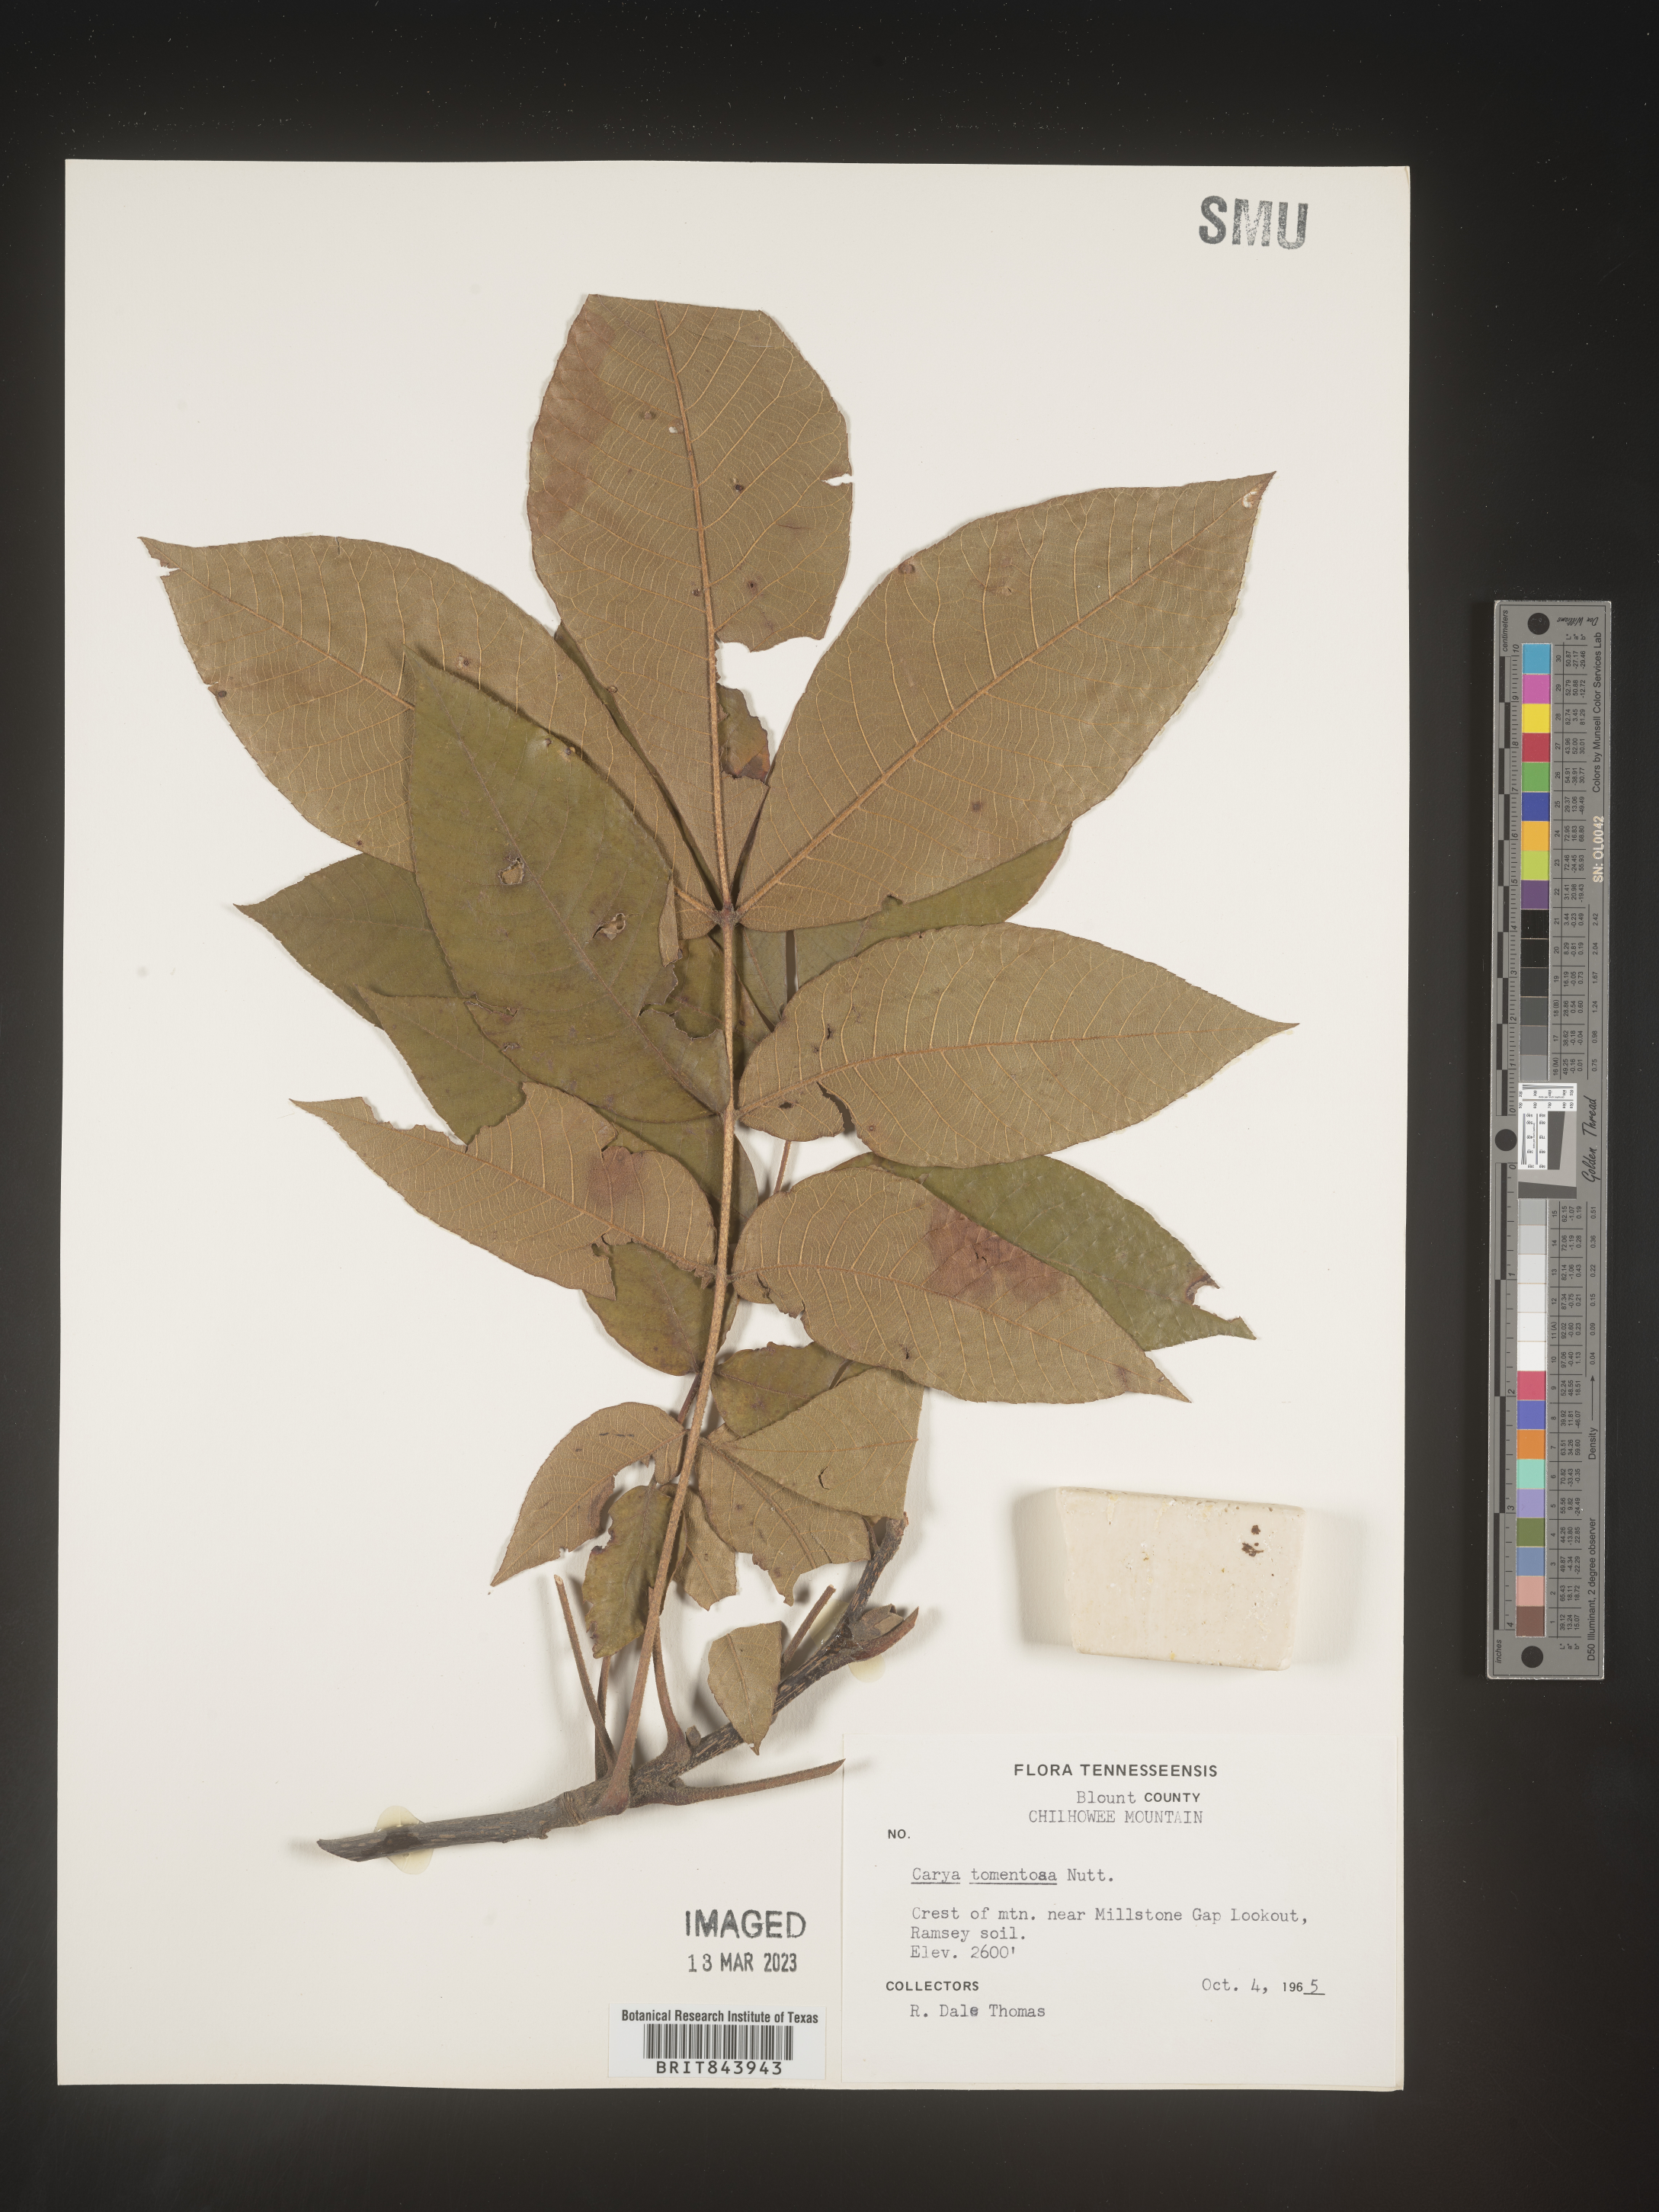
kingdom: Plantae
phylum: Tracheophyta
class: Magnoliopsida
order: Fagales
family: Juglandaceae
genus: Carya
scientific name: Carya alba
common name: Mockernut hickory
